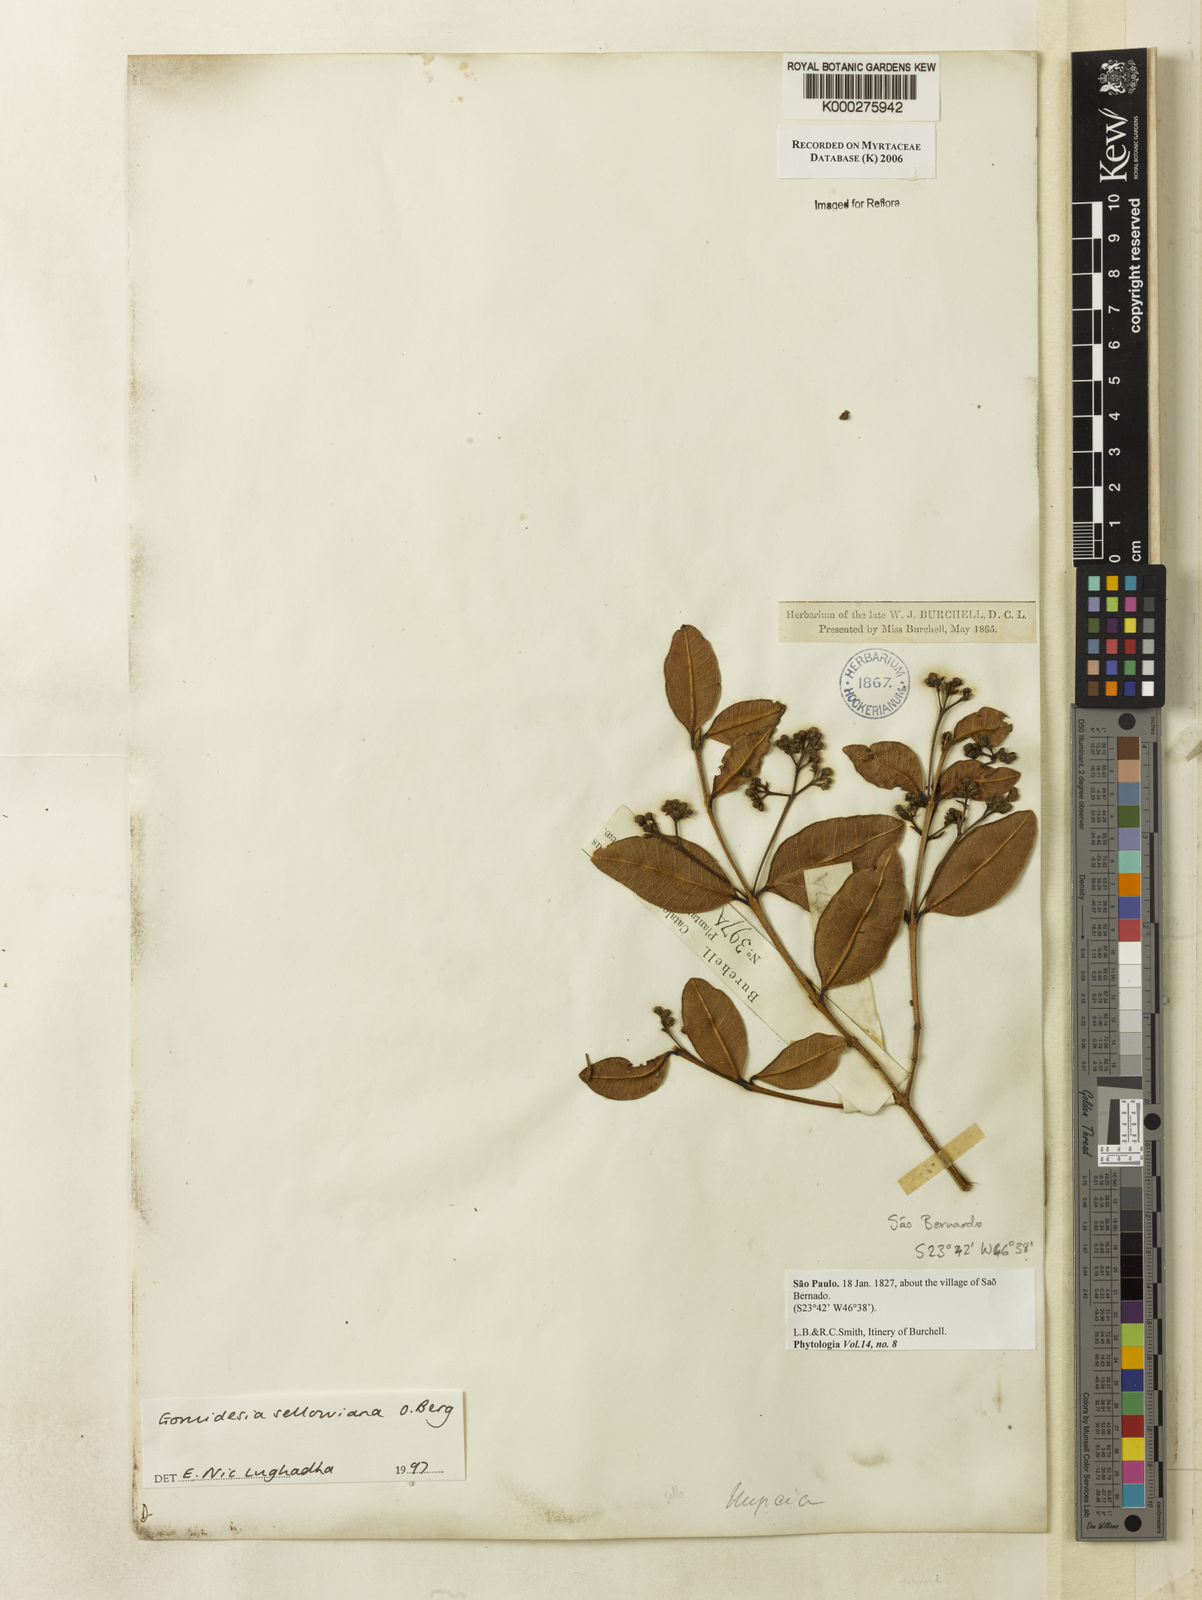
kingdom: Plantae
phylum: Tracheophyta
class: Magnoliopsida
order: Myrtales
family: Myrtaceae
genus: Myrcia
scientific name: Myrcia hartwegiana
